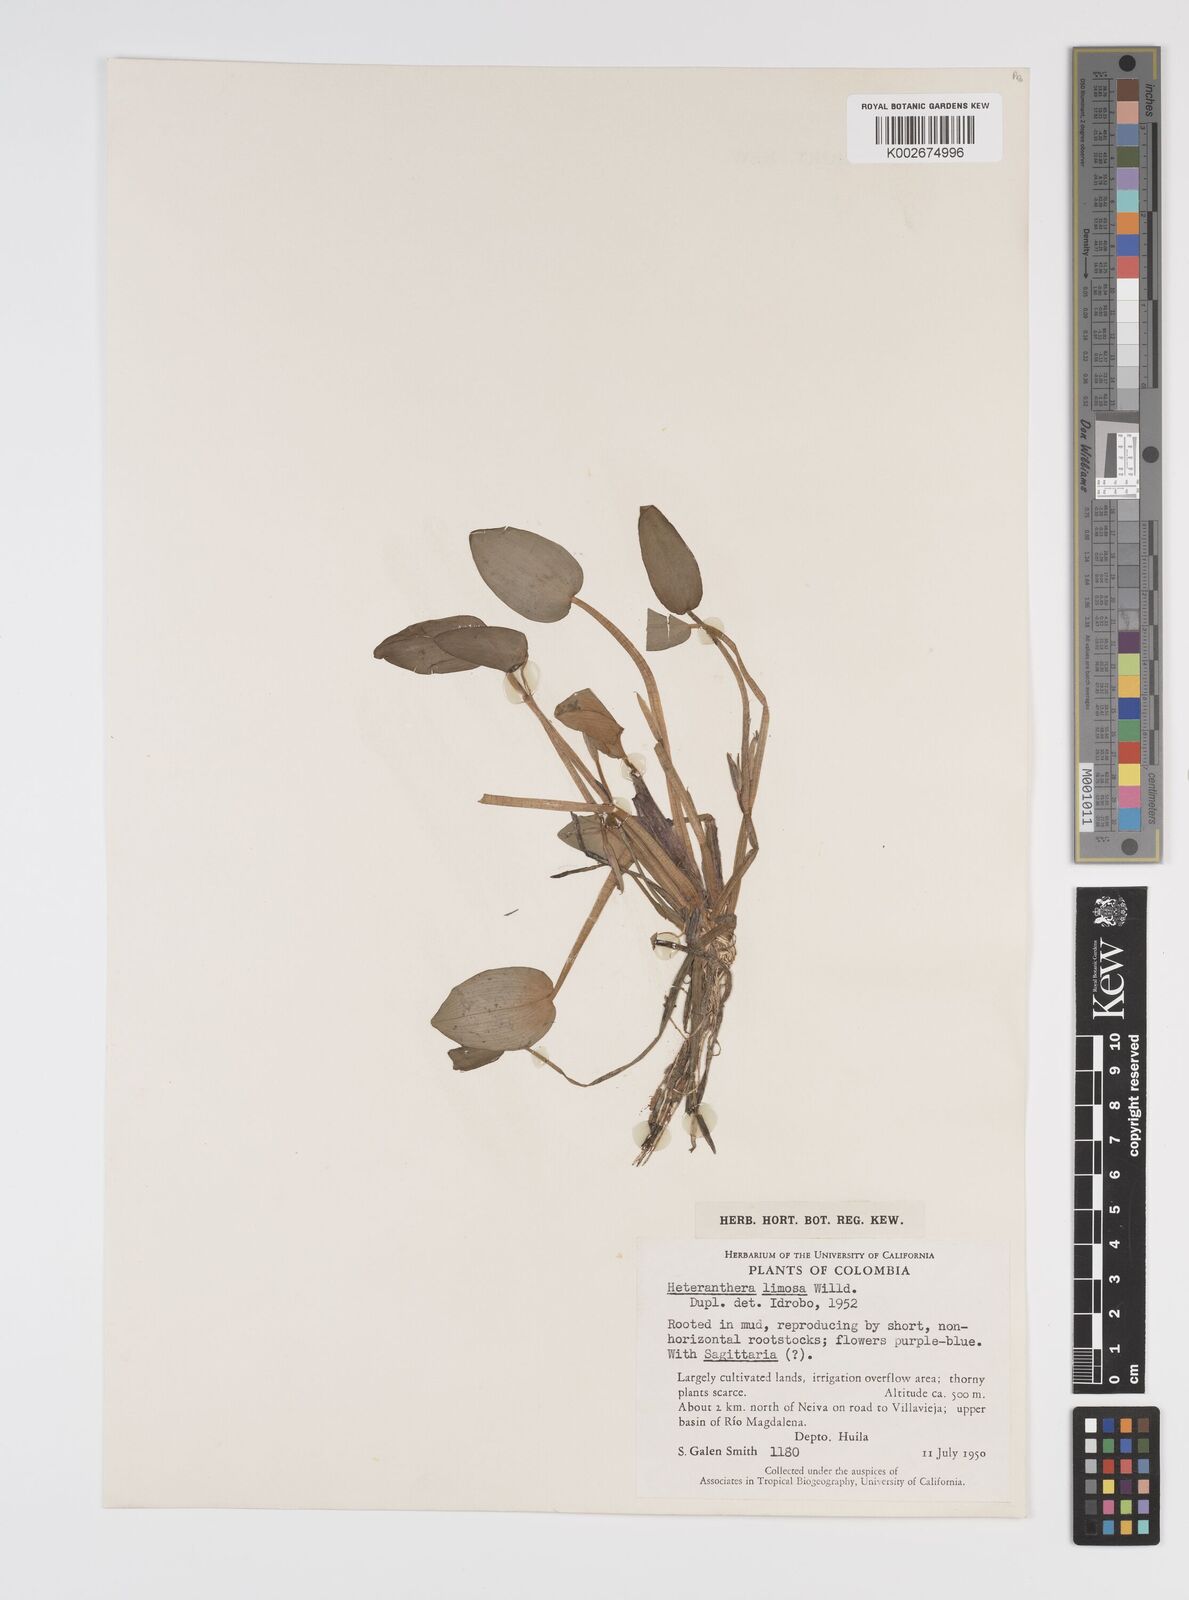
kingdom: Plantae
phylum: Tracheophyta
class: Liliopsida
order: Commelinales
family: Pontederiaceae
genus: Heteranthera
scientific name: Heteranthera limosa
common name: Blue mud-plantain
